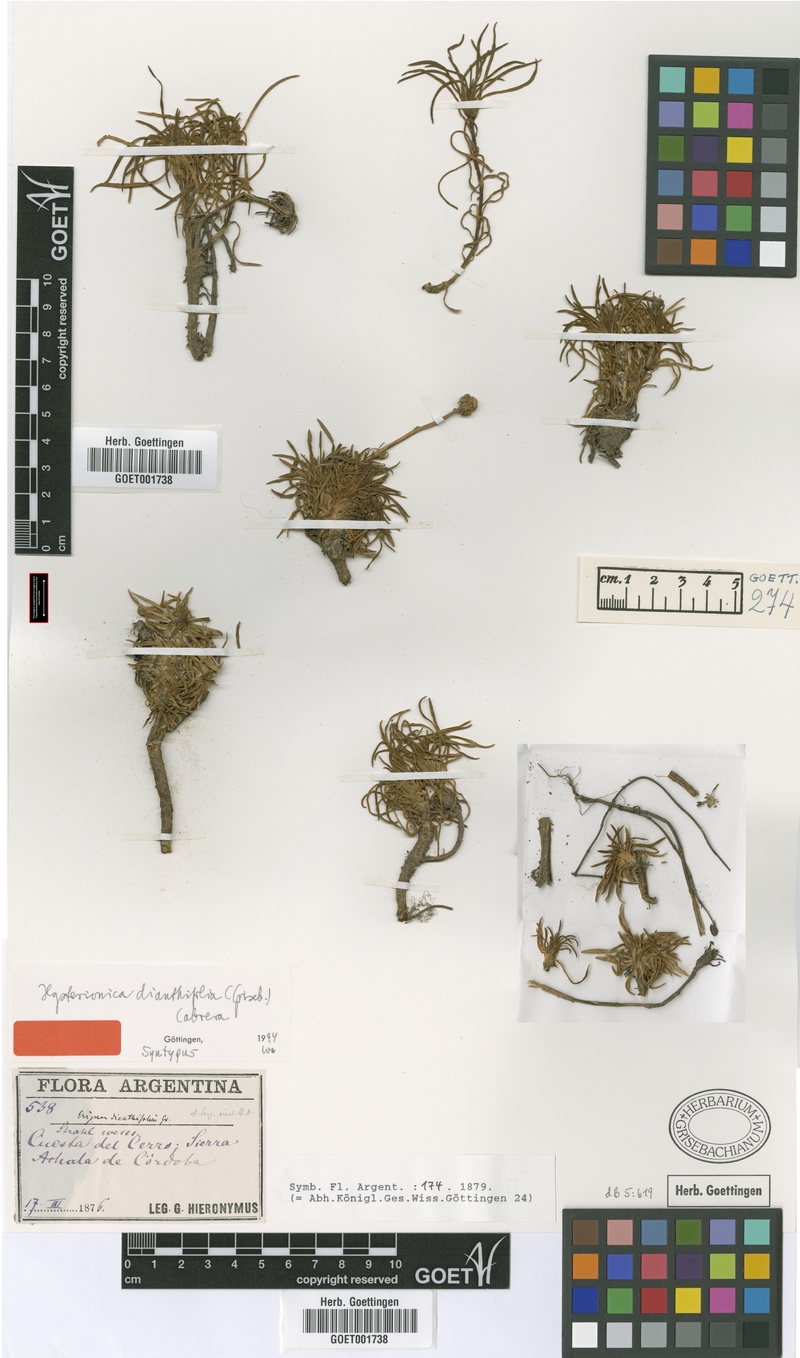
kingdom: Plantae
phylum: Tracheophyta
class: Magnoliopsida
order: Asterales
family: Asteraceae
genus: Neja
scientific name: Neja dianthifolia
